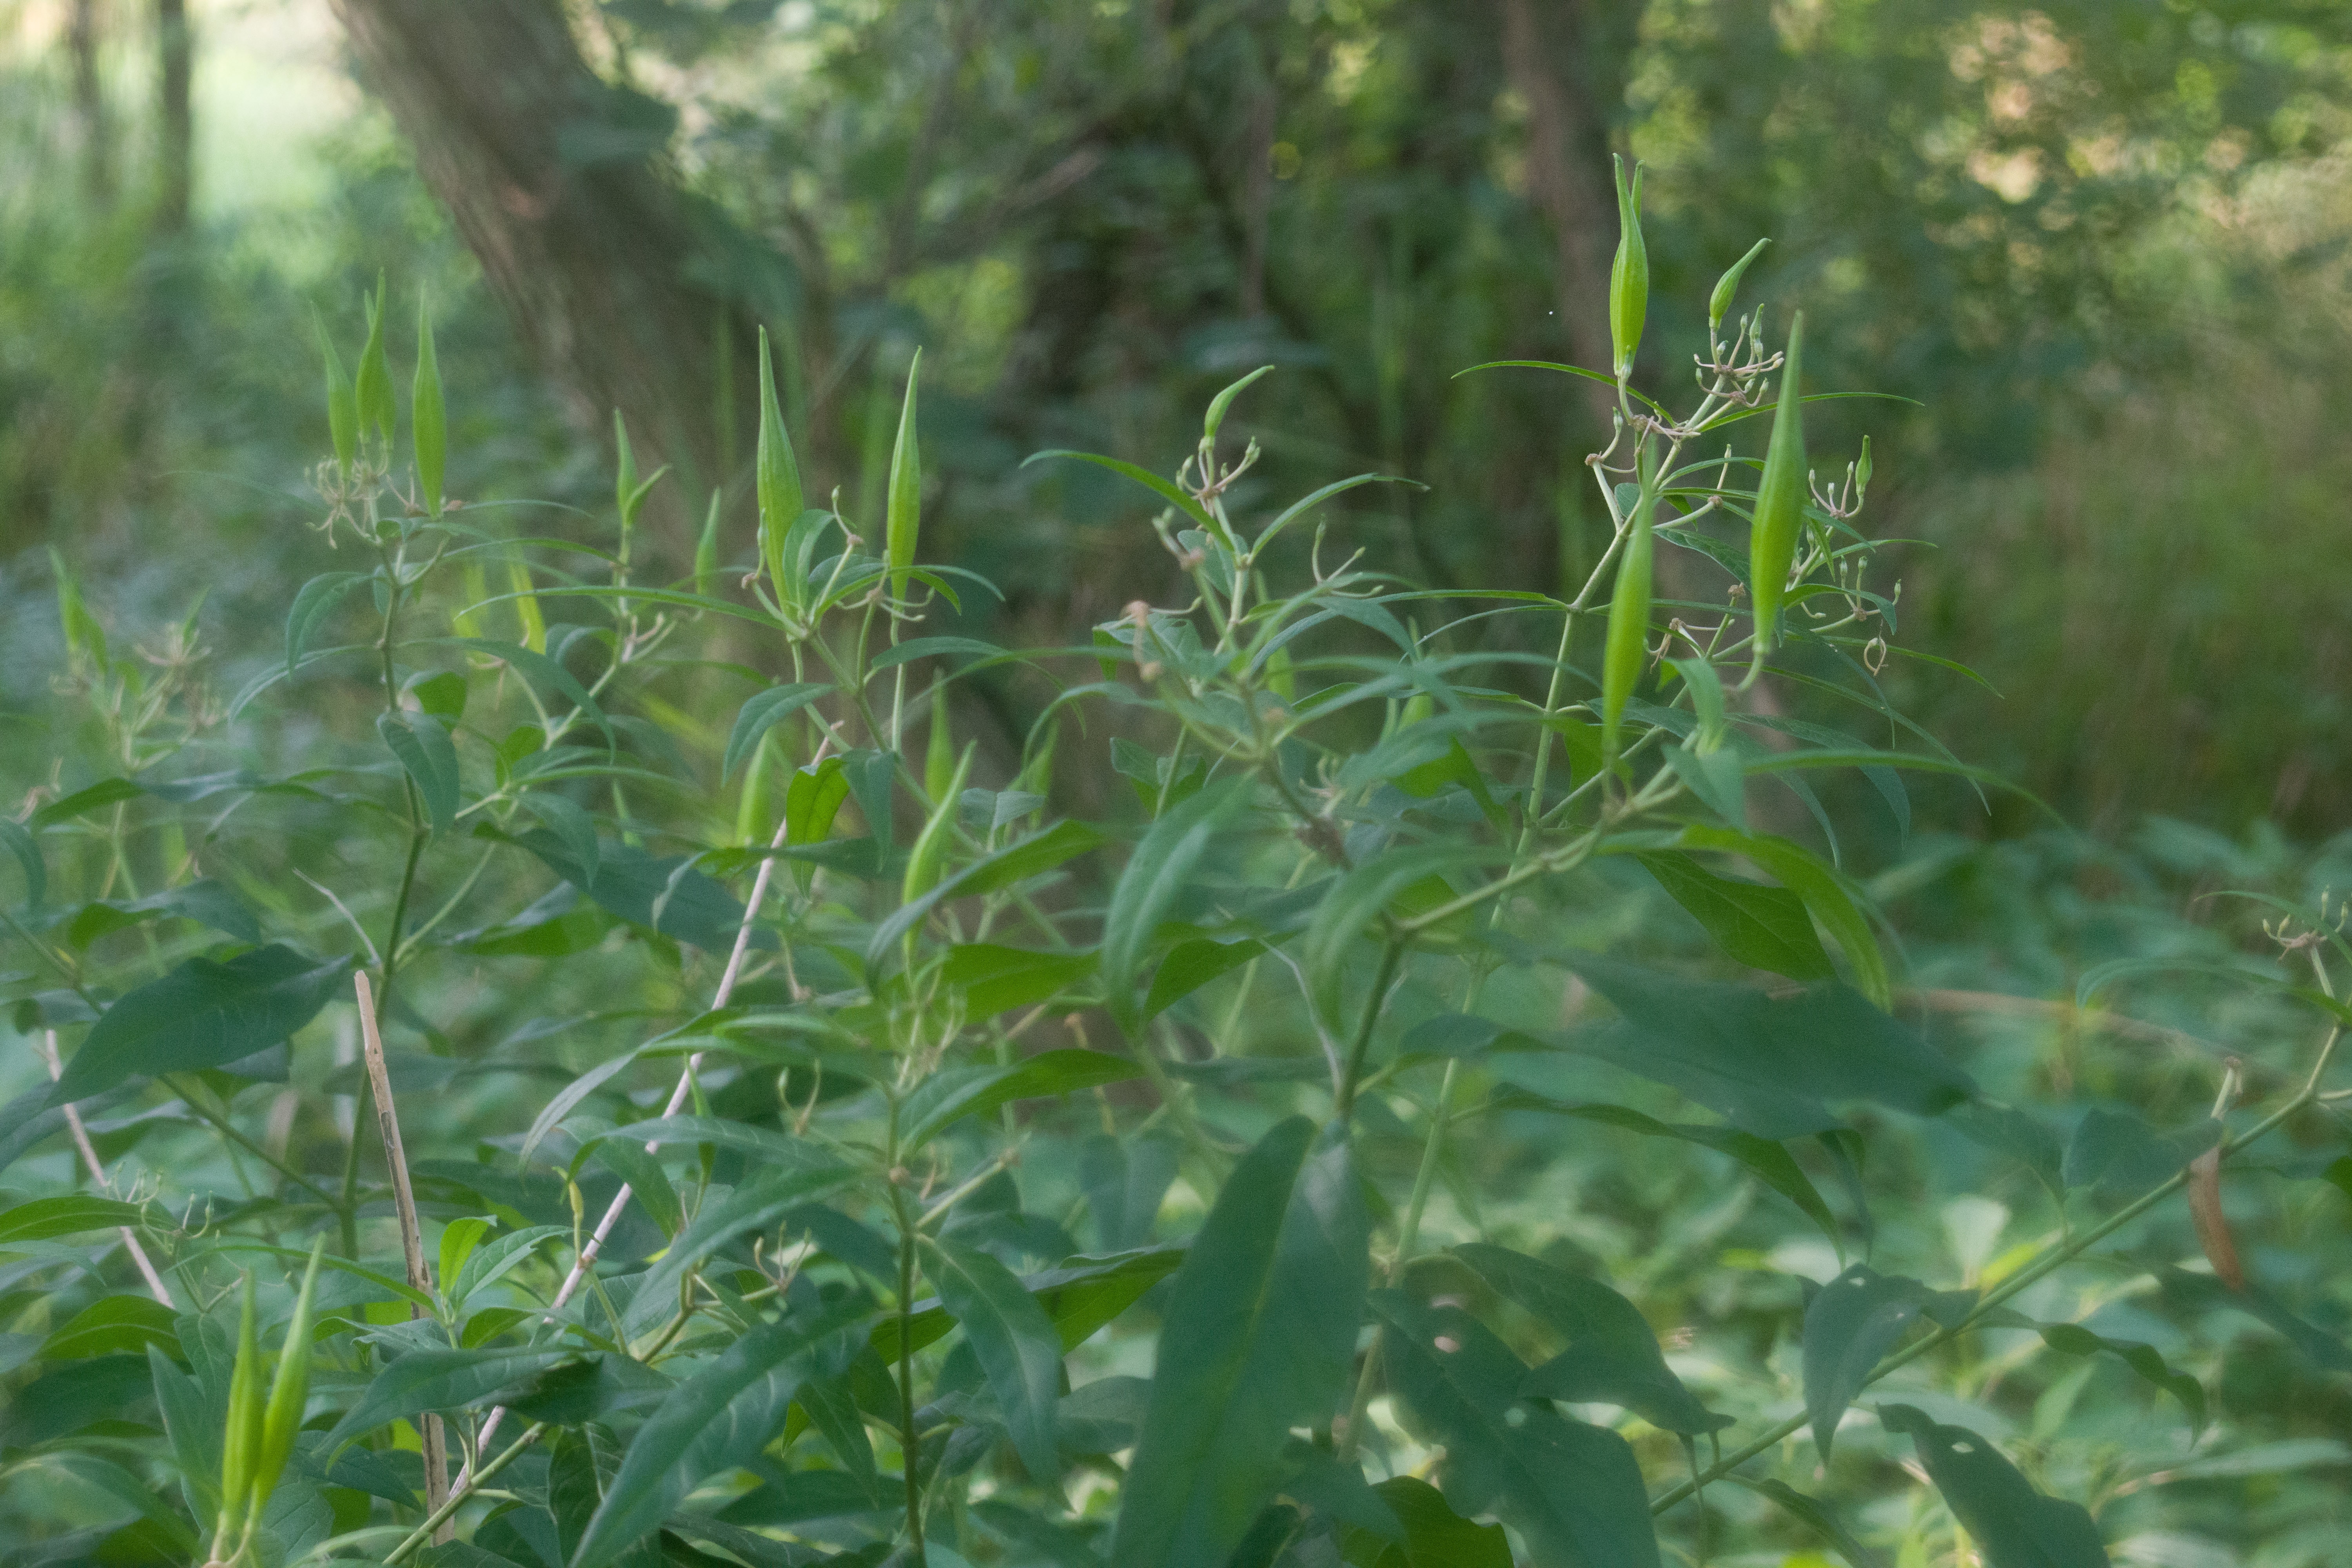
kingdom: Plantae
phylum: Tracheophyta
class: Magnoliopsida
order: Gentianales
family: Apocynaceae
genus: Asclepias
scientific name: Asclepias incarnata
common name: Swamp milkweed
